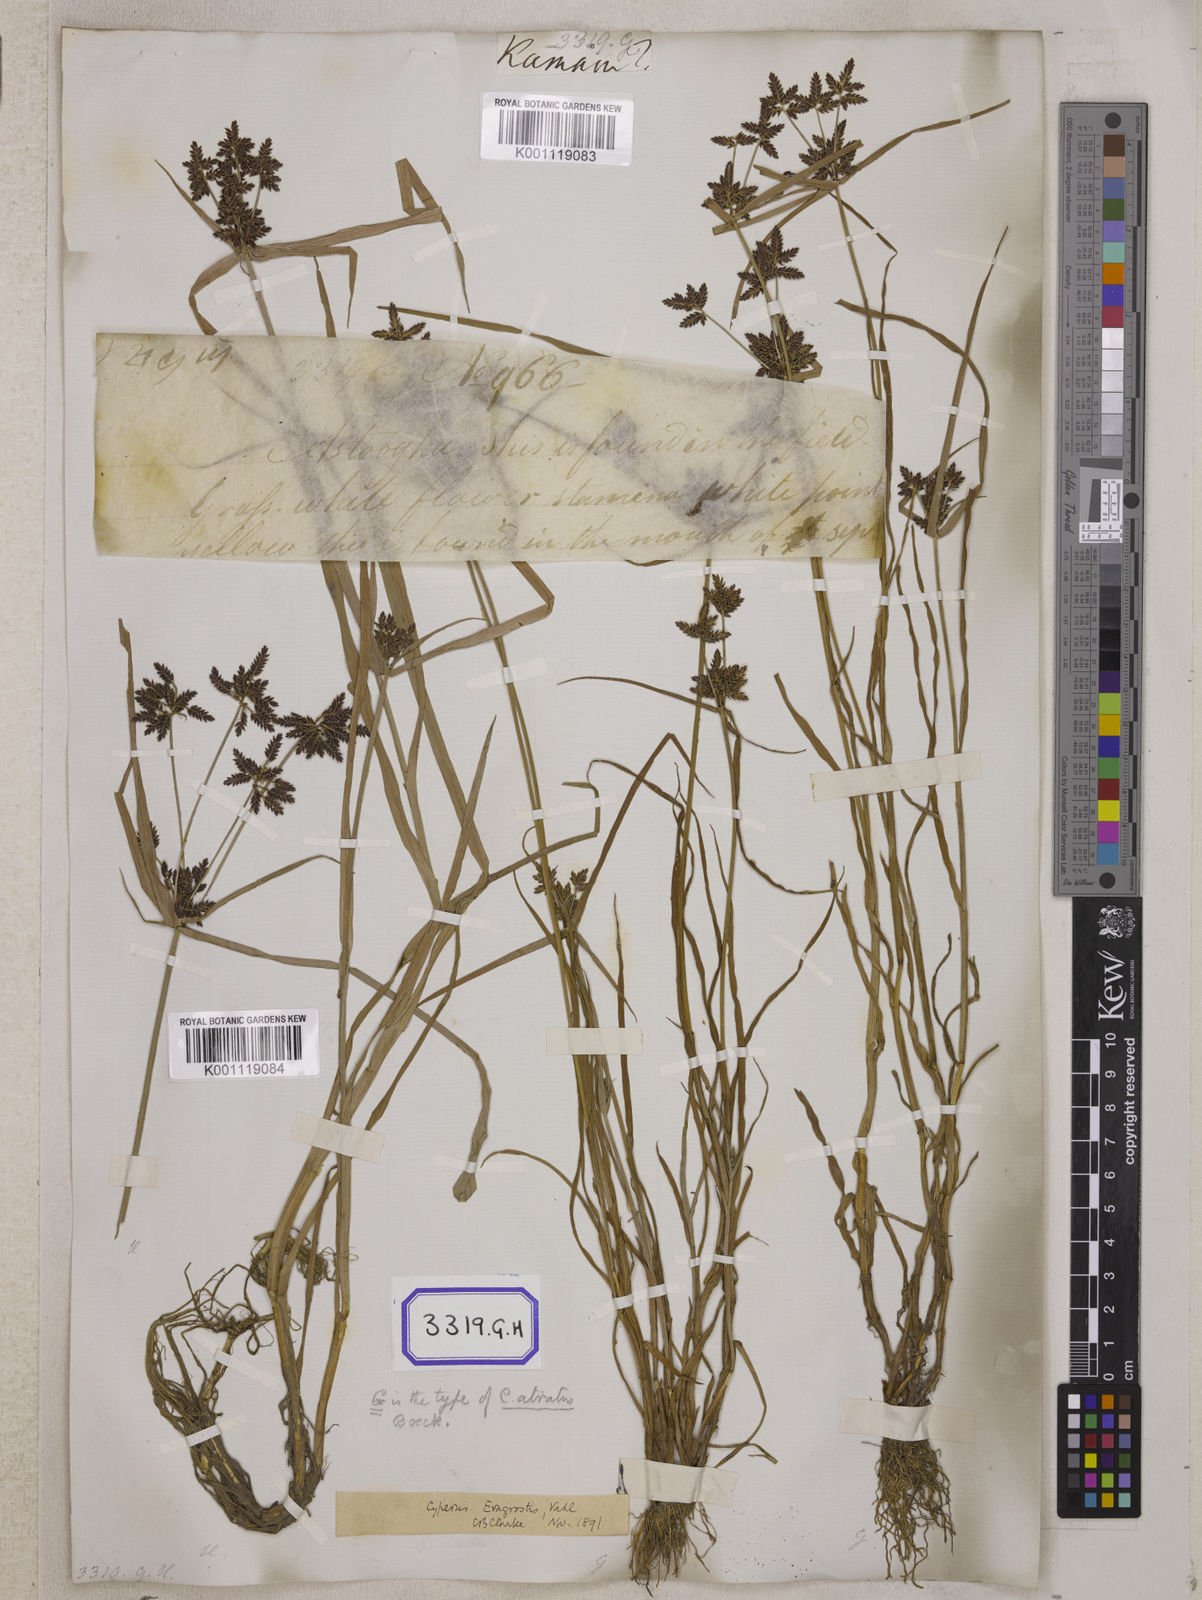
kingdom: Plantae
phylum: Tracheophyta
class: Liliopsida
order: Poales
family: Cyperaceae
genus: Cyperus
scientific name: Cyperus
